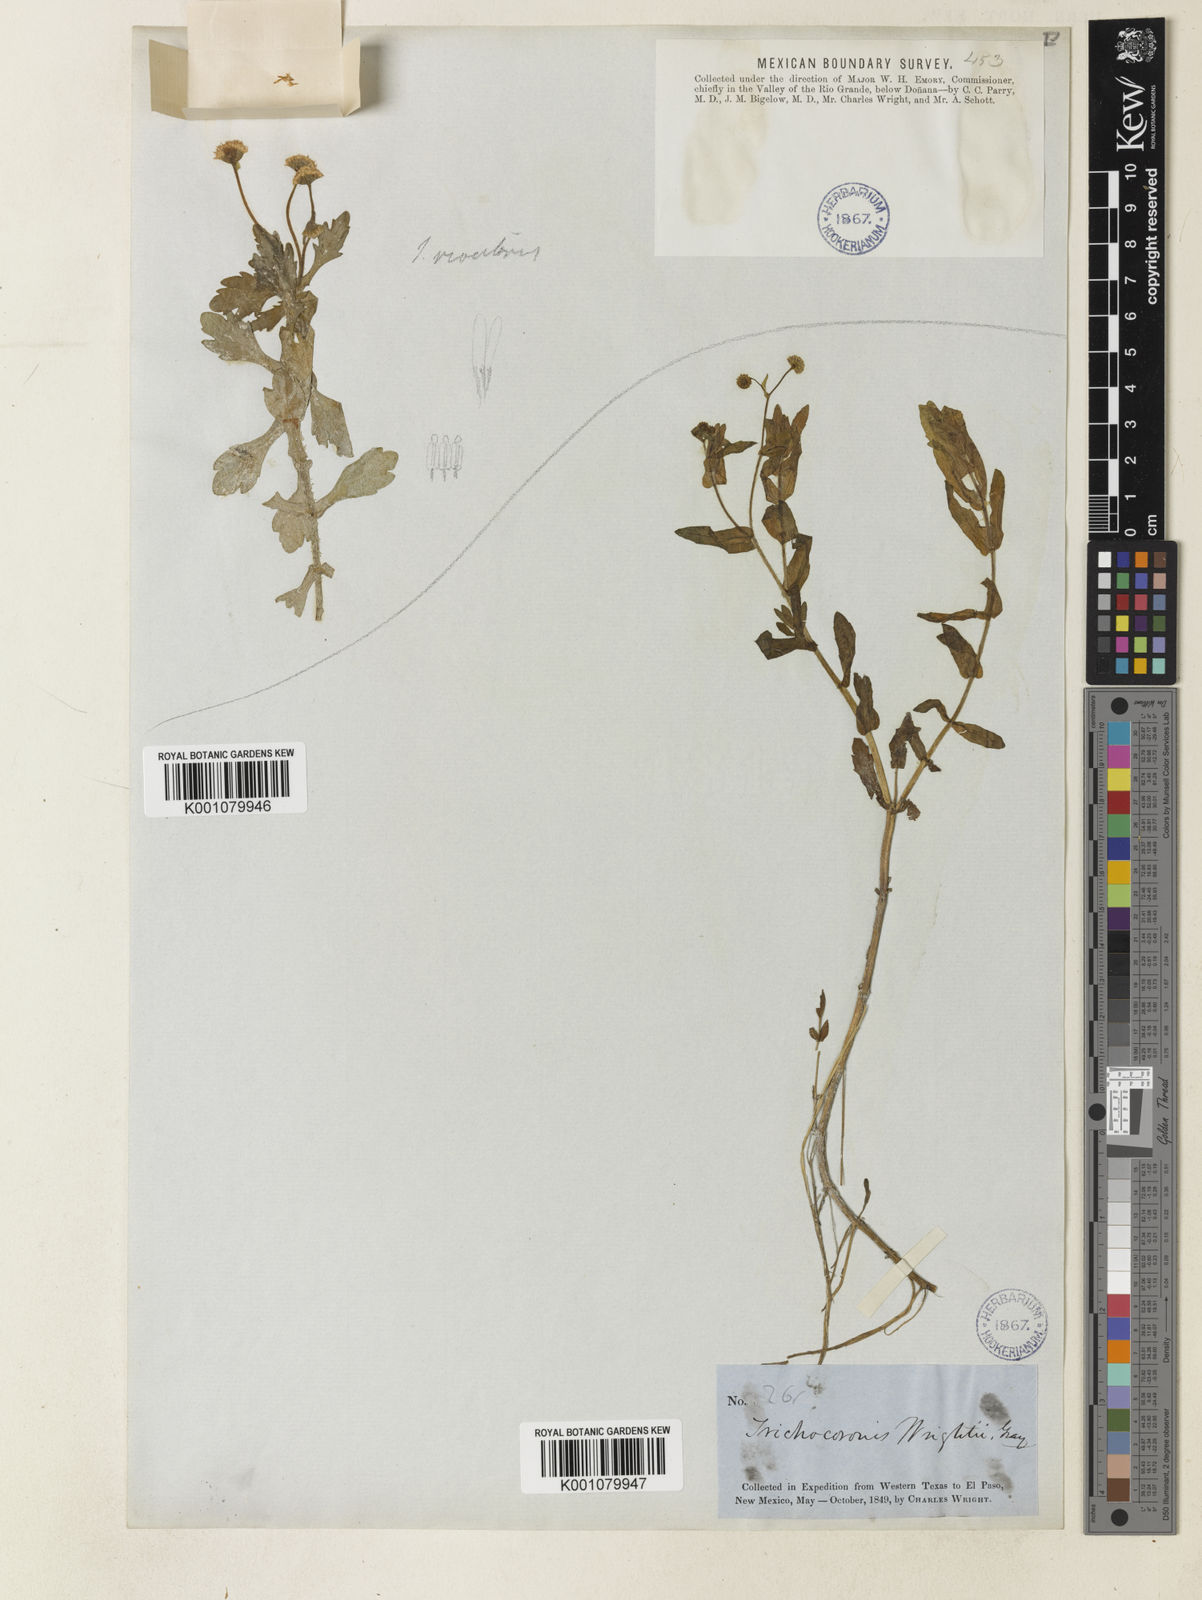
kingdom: Plantae
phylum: Tracheophyta
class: Magnoliopsida
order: Asterales
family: Asteraceae
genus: Trichocoronis
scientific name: Trichocoronis wrightii
